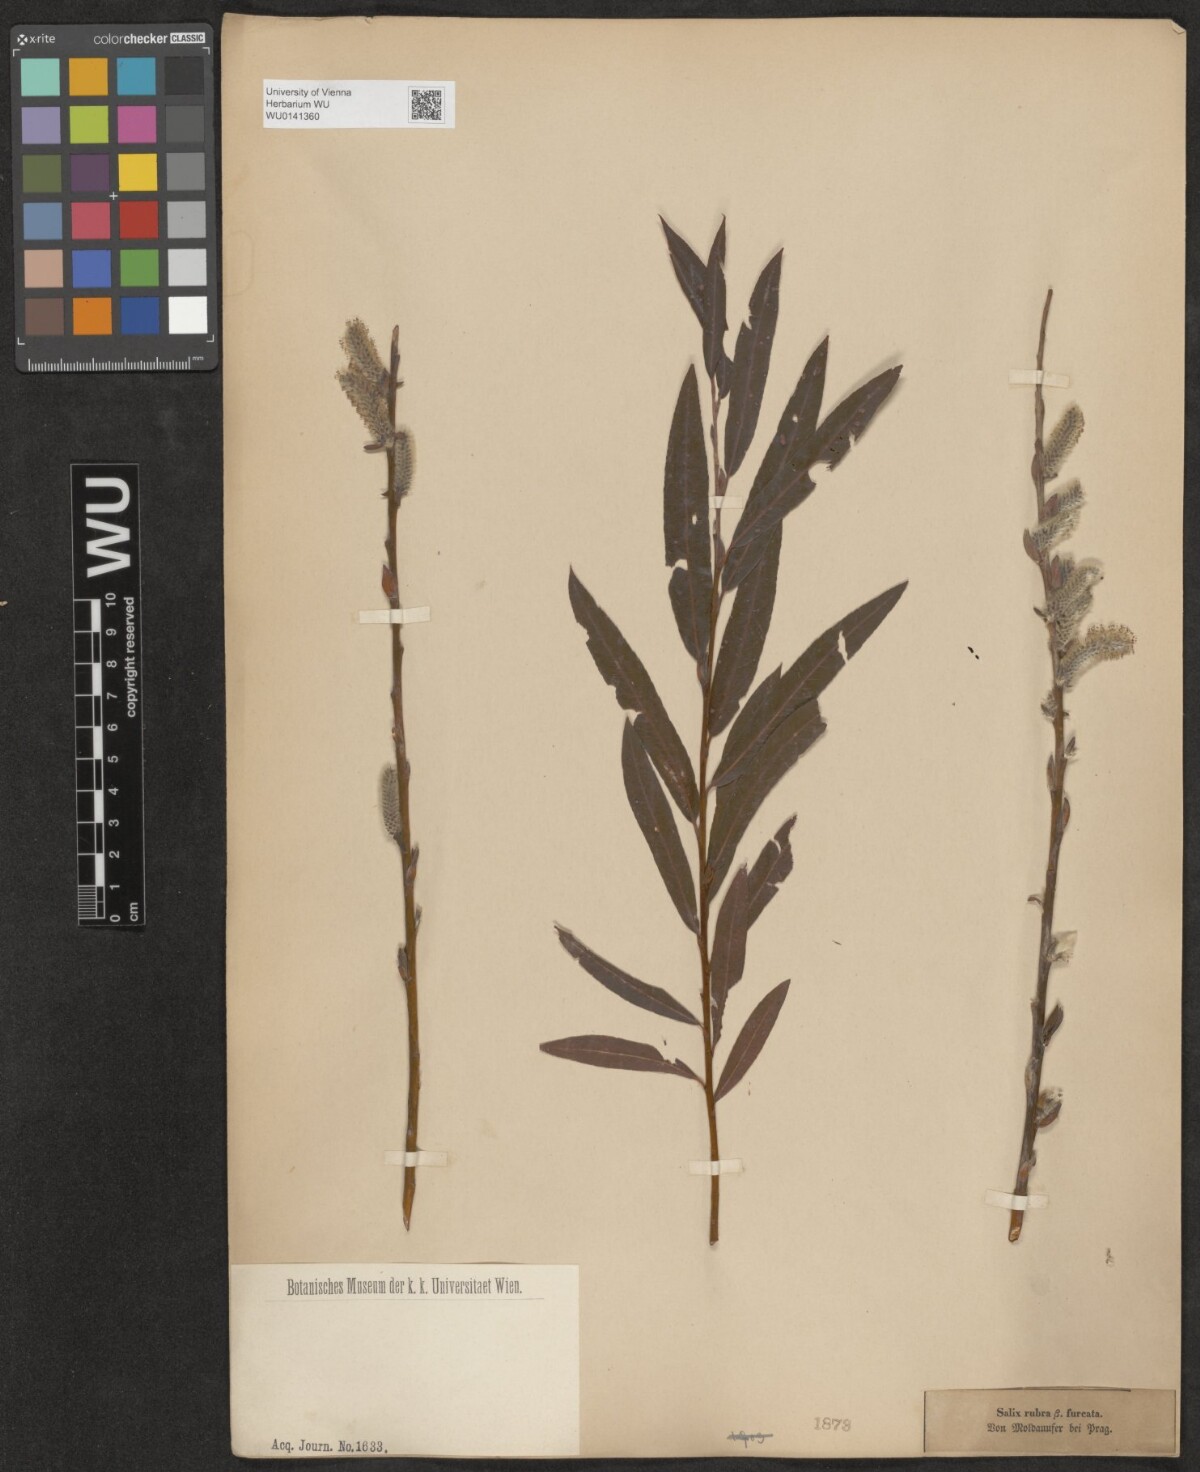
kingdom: Plantae
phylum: Tracheophyta
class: Magnoliopsida
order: Malpighiales
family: Salicaceae
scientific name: Salicaceae
